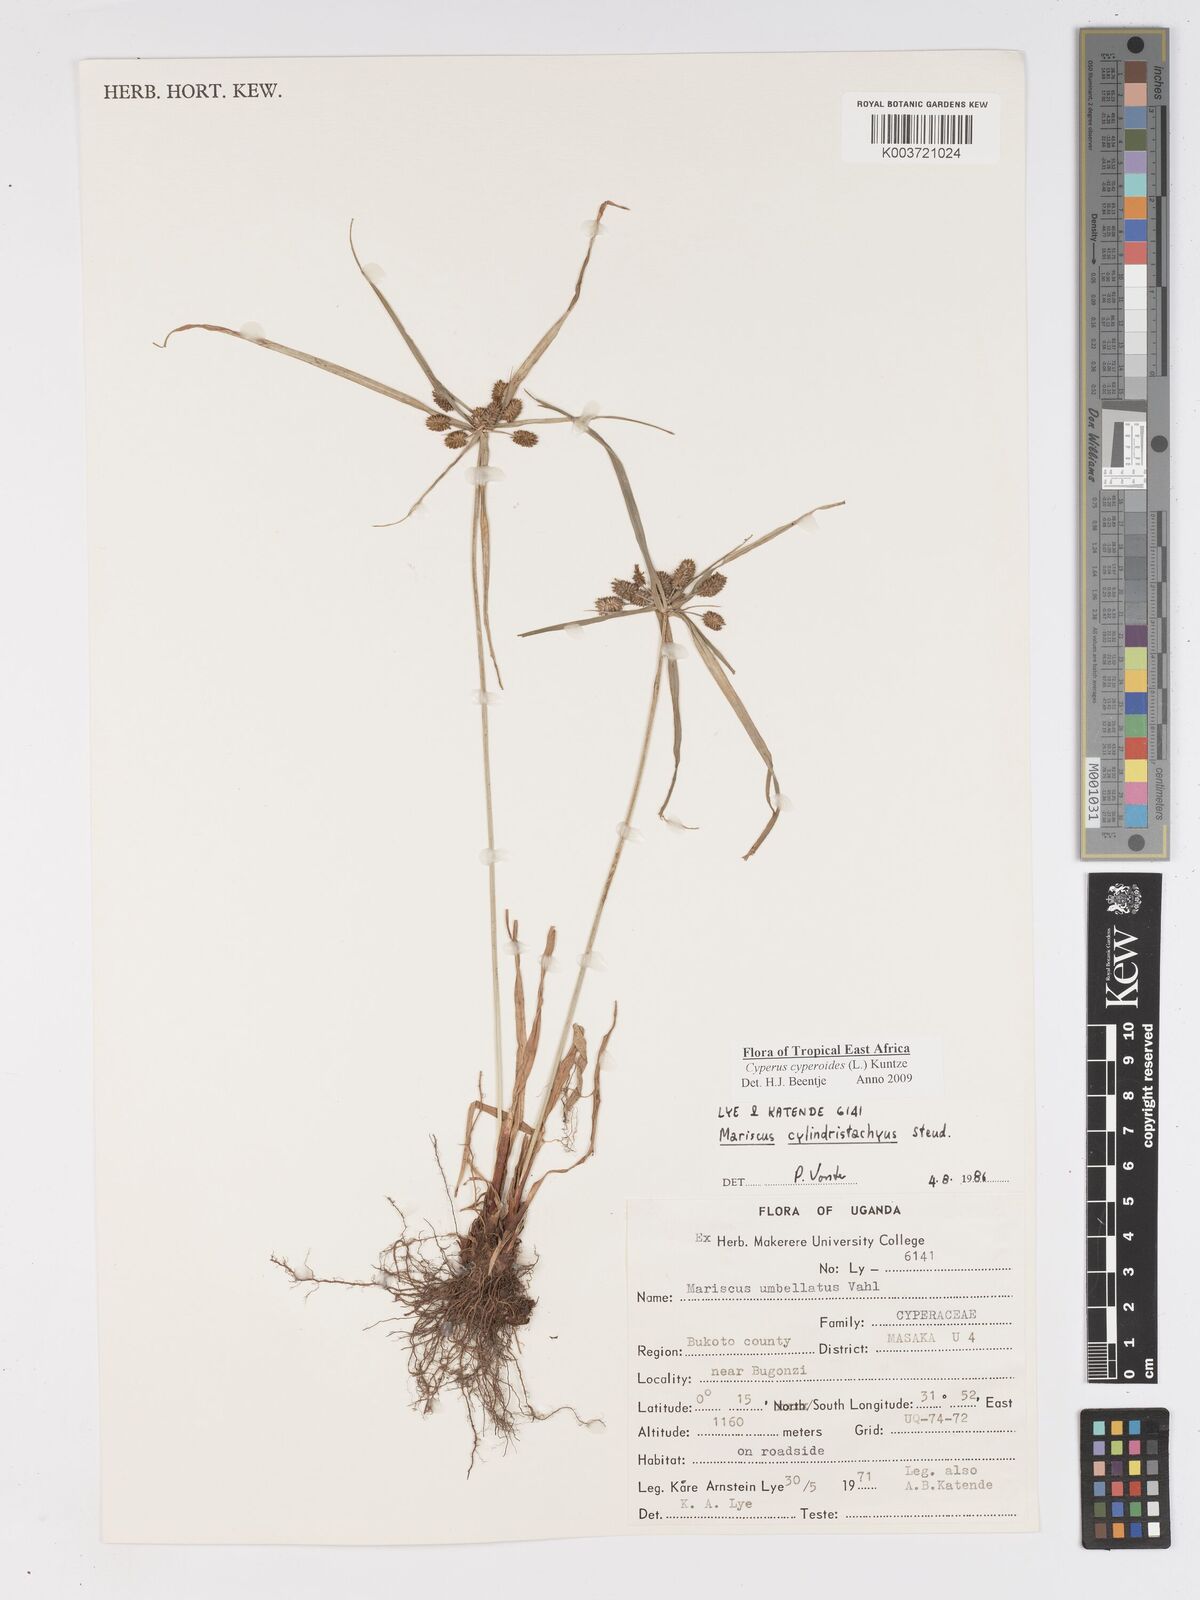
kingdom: Plantae
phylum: Tracheophyta
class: Liliopsida
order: Poales
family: Cyperaceae
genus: Cyperus
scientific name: Cyperus cyperoides
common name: Pacific island flat sedge
